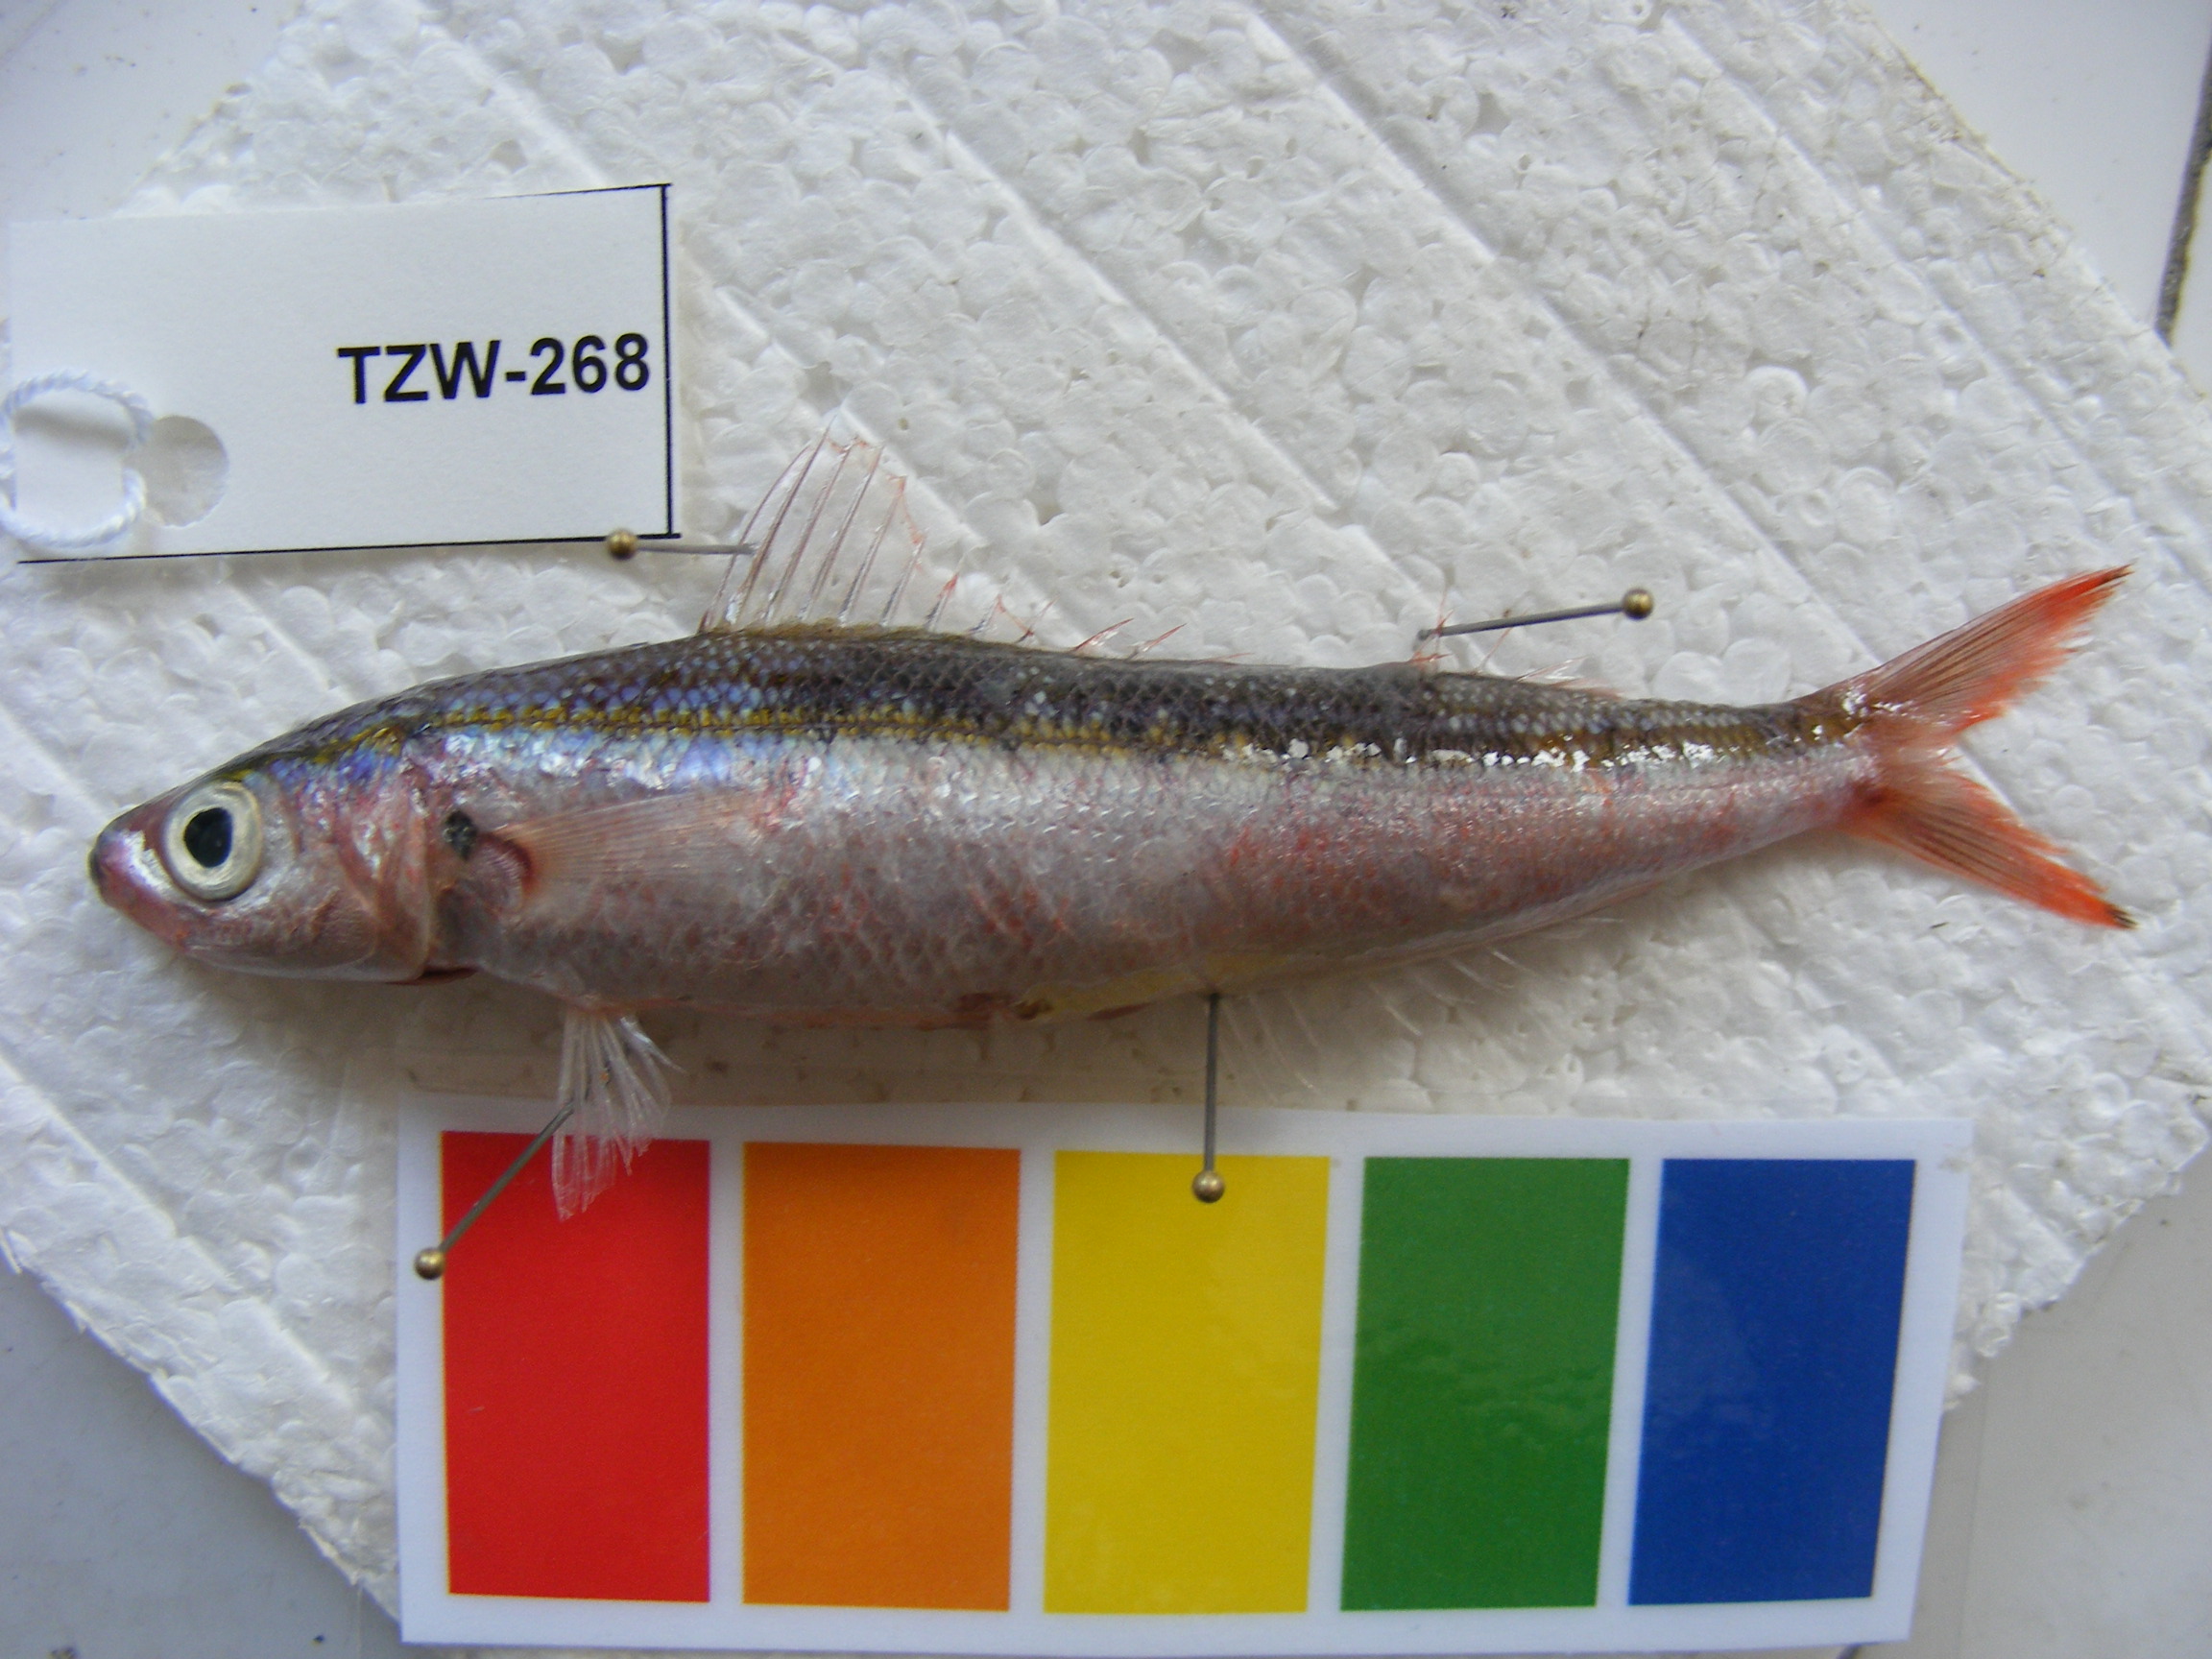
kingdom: Animalia
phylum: Chordata
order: Perciformes
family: Caesionidae
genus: Caesio
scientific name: Caesio caerulaurea
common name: Blue and gold fusilier
